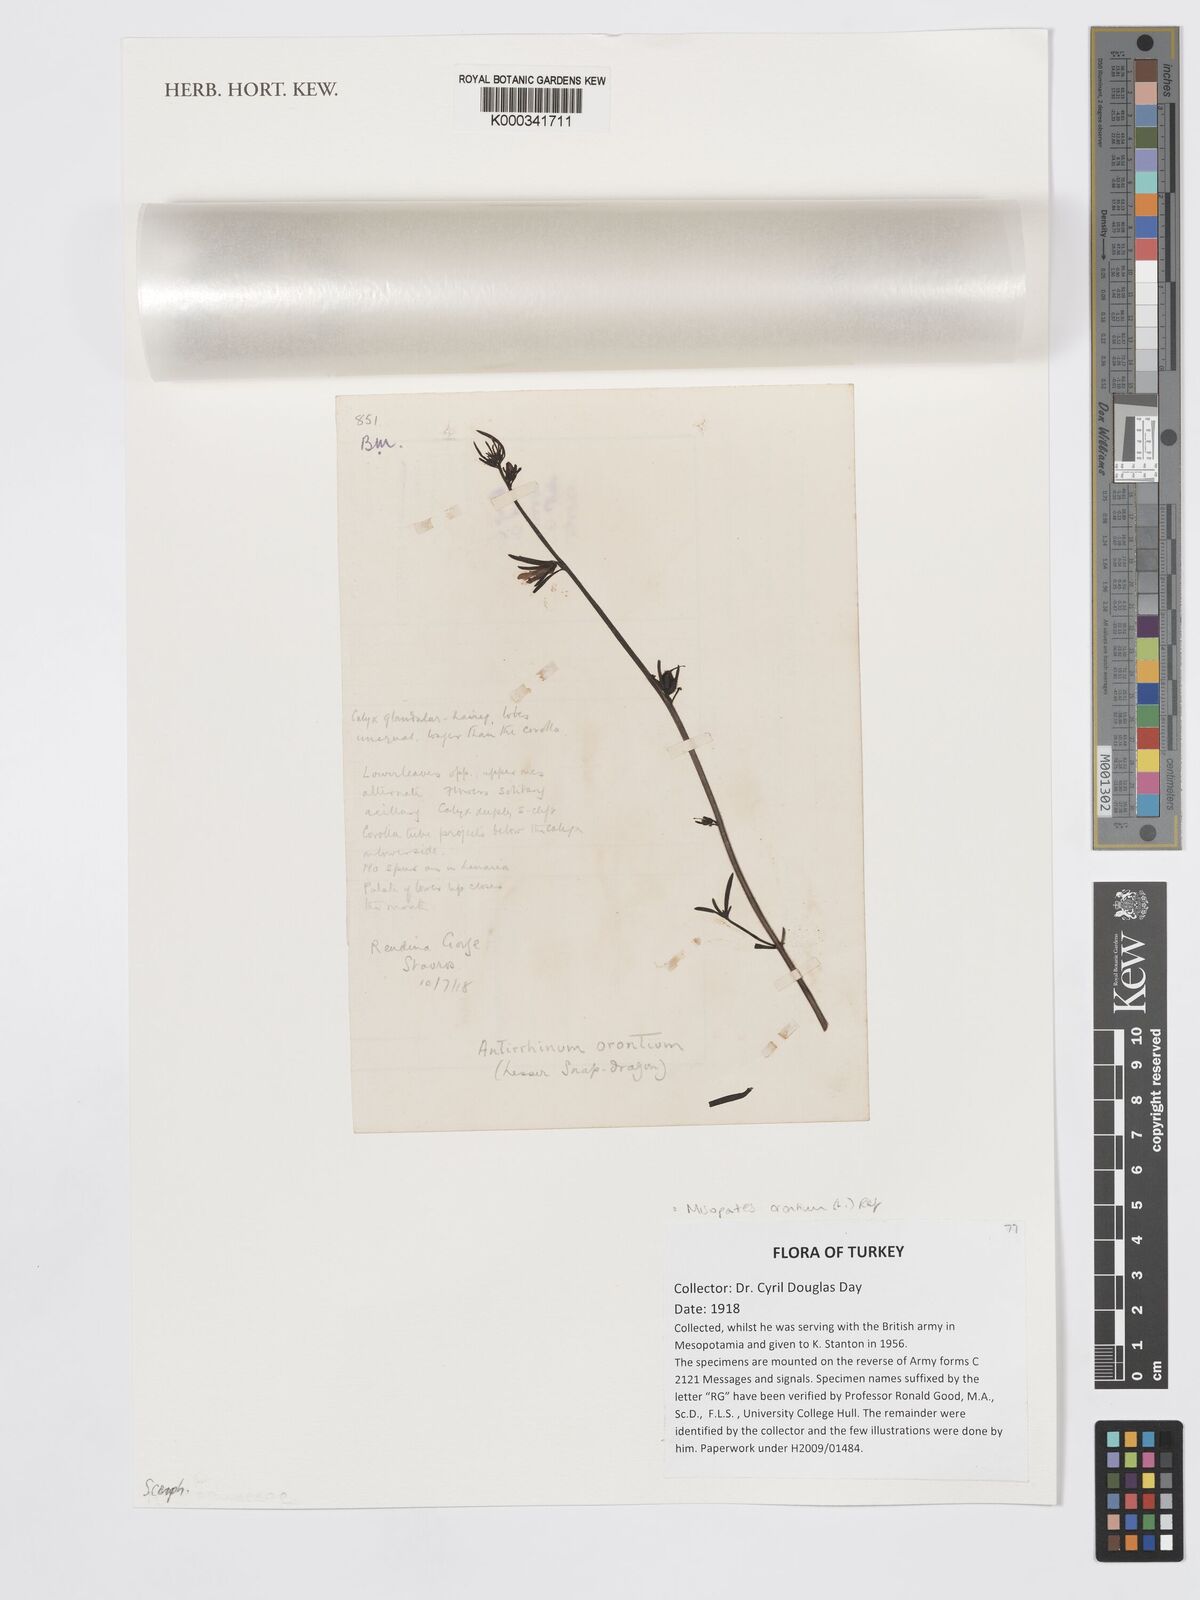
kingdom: Plantae
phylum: Tracheophyta
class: Magnoliopsida
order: Lamiales
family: Plantaginaceae
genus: Misopates
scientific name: Misopates orontium
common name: Weasel's-snout
